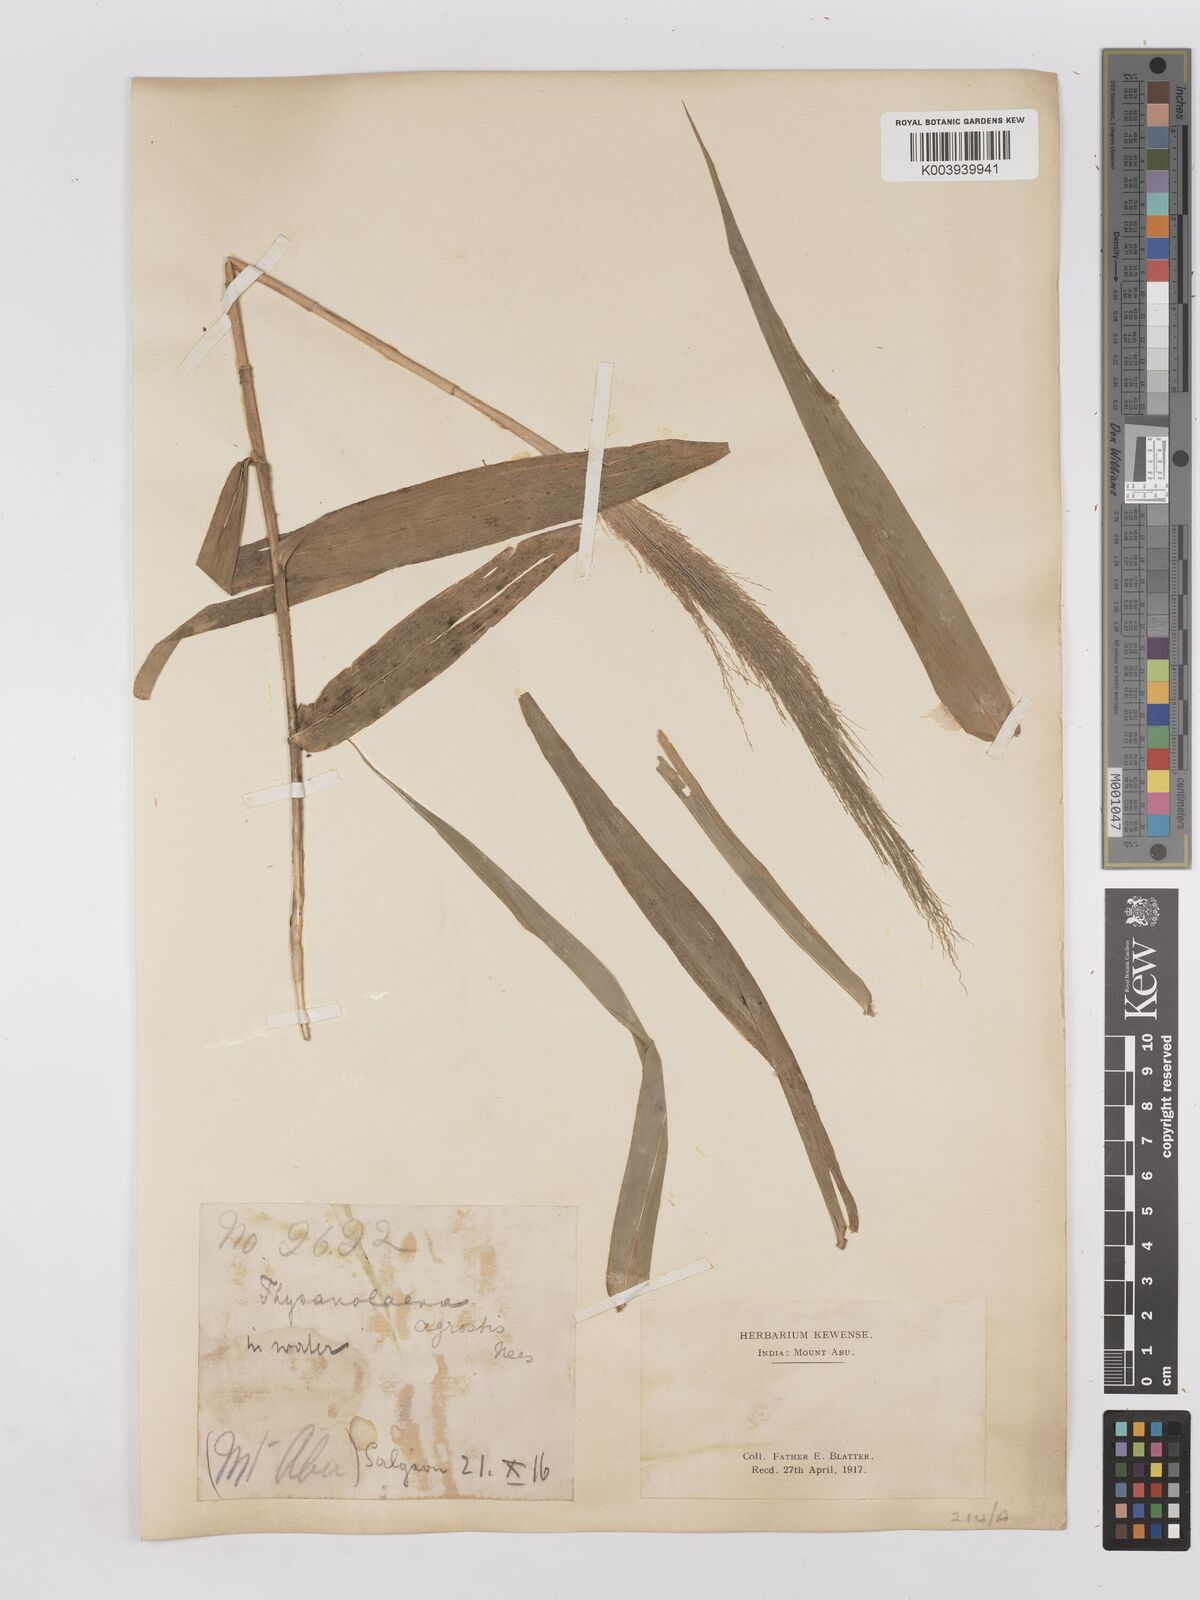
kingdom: Plantae
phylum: Tracheophyta
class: Liliopsida
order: Poales
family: Poaceae
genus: Thysanolaena
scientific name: Thysanolaena latifolia
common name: Tiger grass
